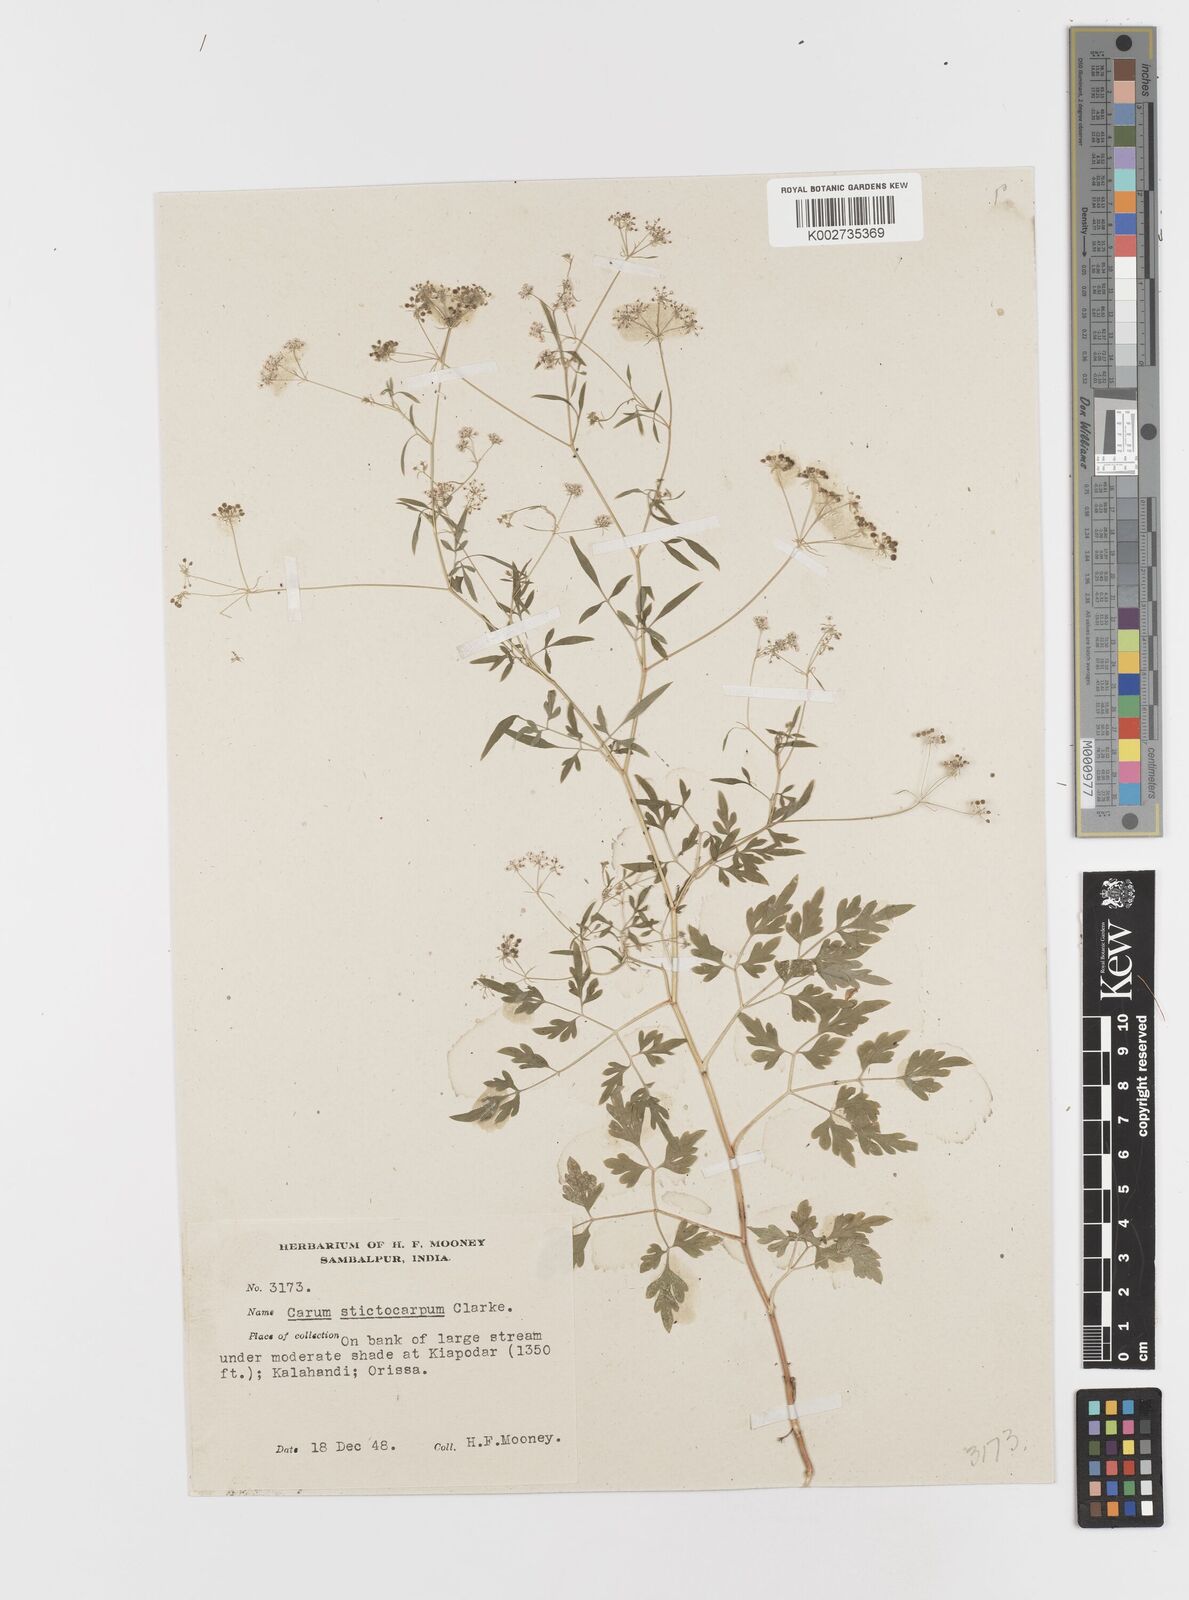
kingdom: Plantae
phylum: Tracheophyta
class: Magnoliopsida
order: Apiales
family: Apiaceae
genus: Psammogeton
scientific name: Psammogeton involucratum
